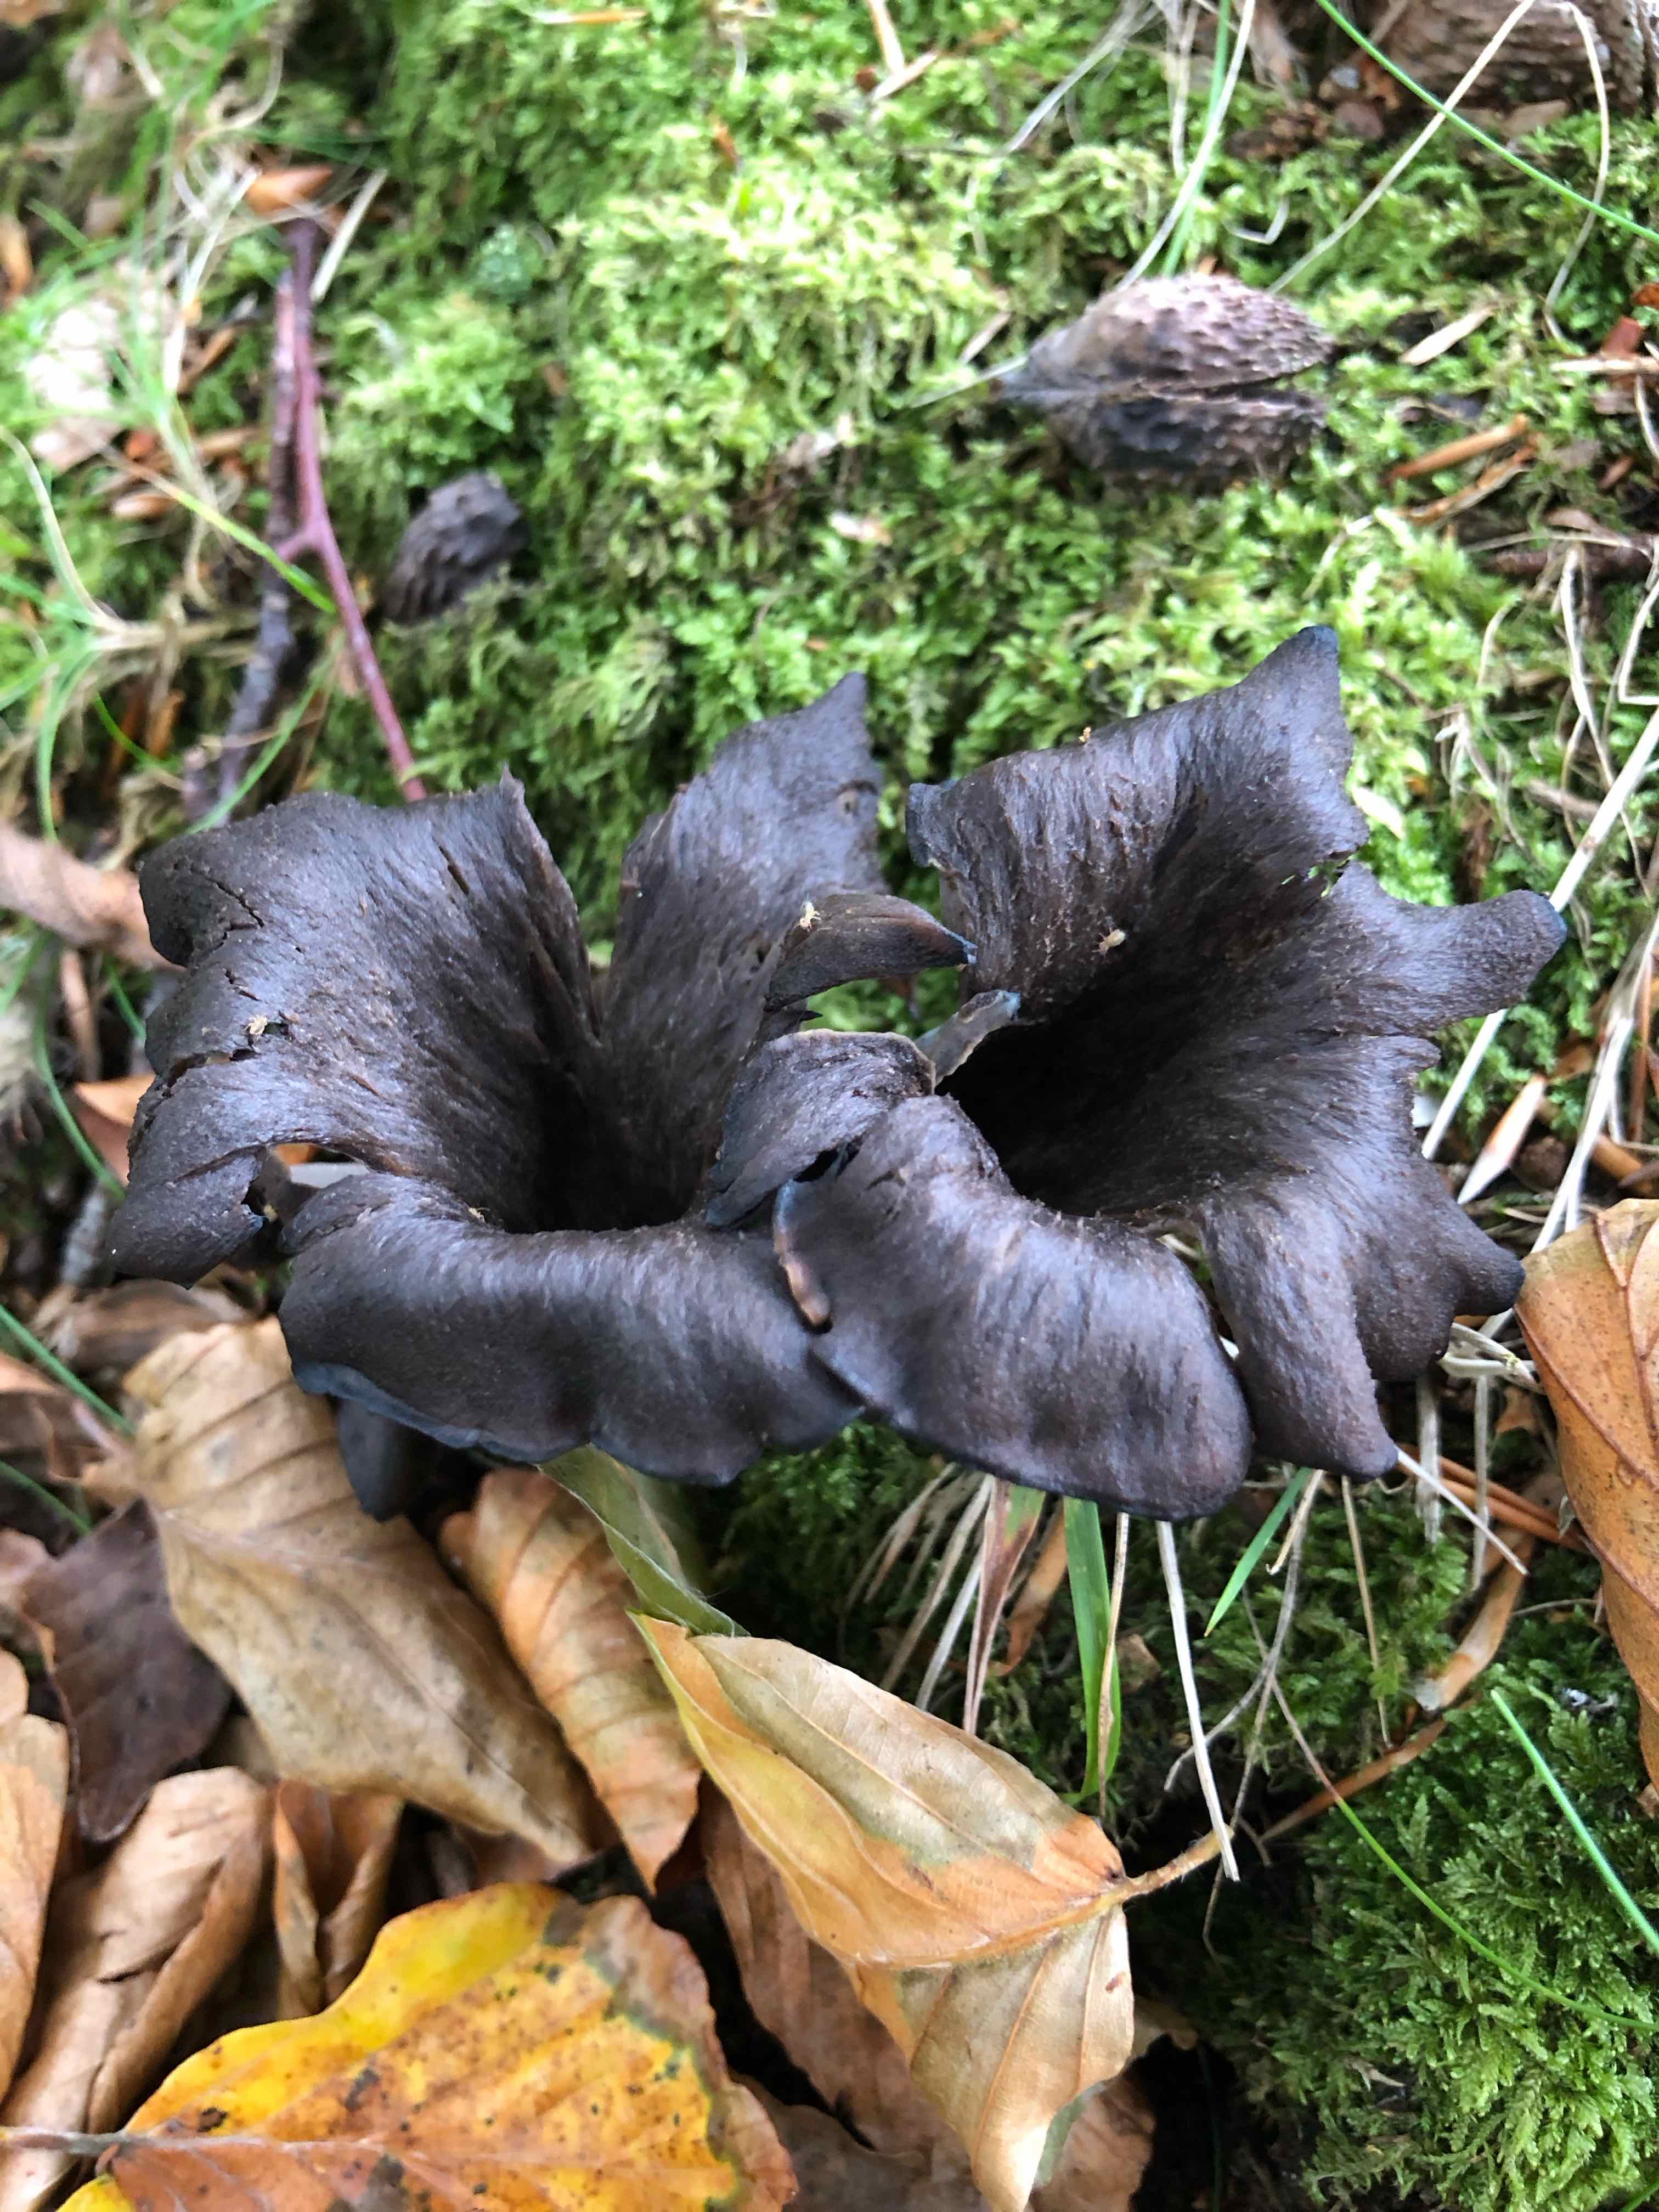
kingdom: Fungi
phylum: Basidiomycota
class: Agaricomycetes
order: Cantharellales
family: Hydnaceae
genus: Craterellus
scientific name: Craterellus cornucopioides
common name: trompetsvamp
